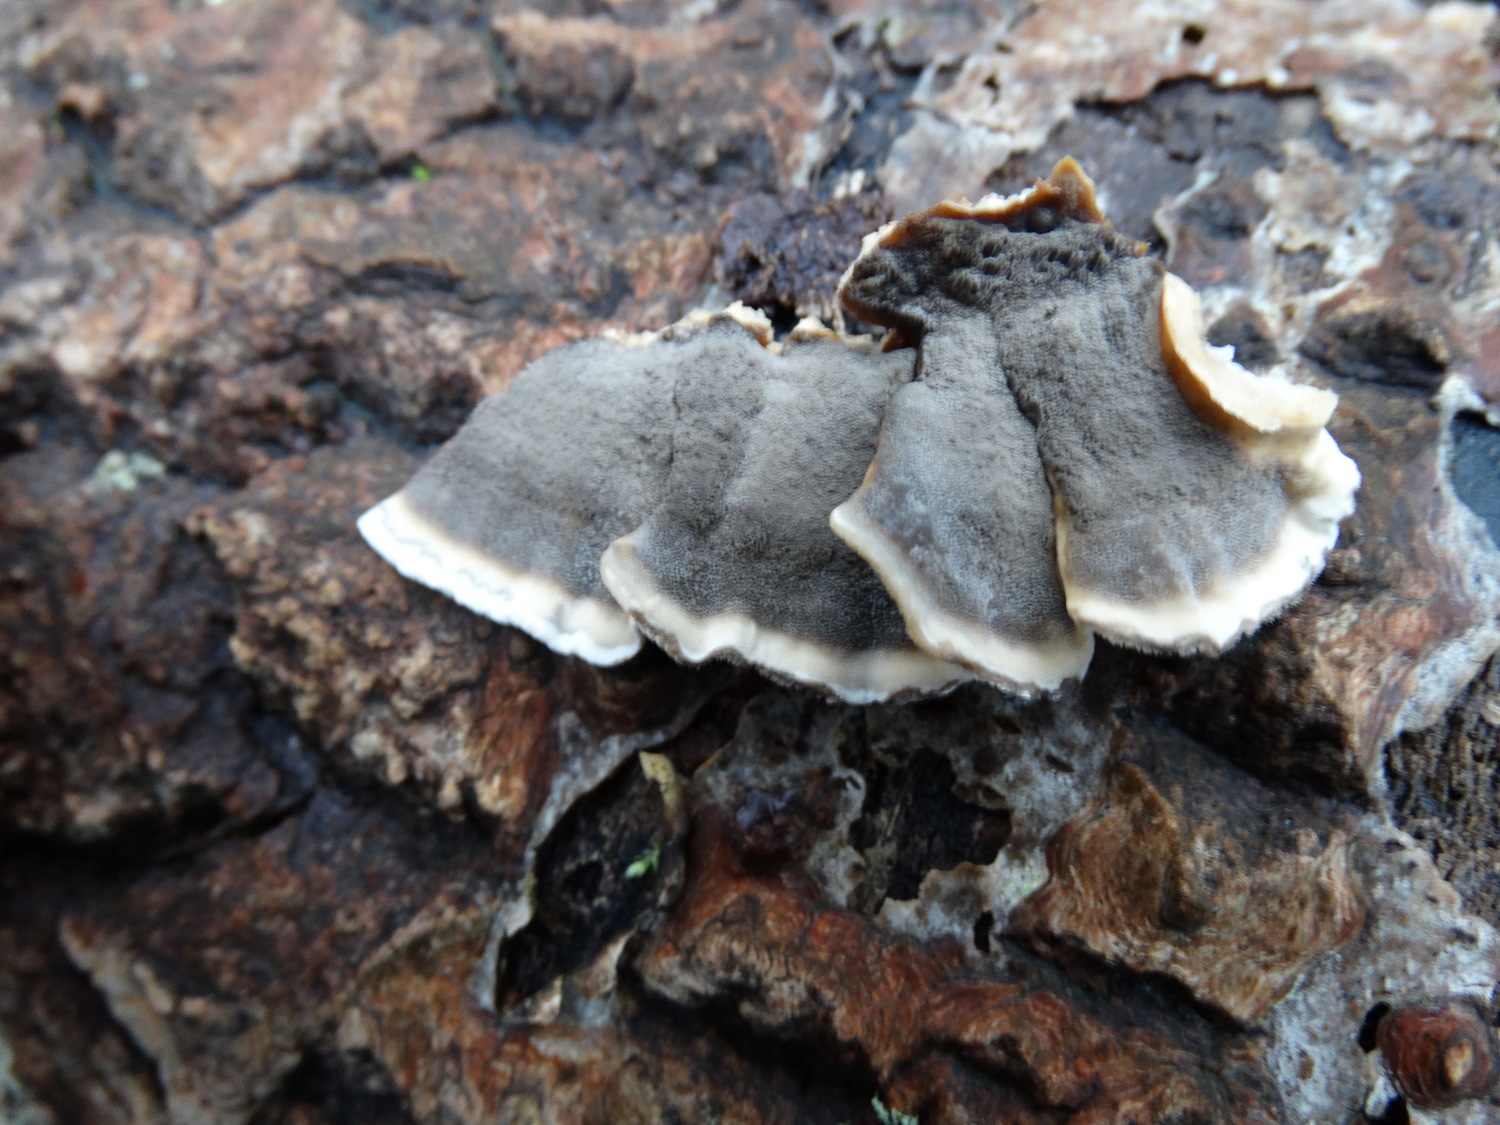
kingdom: Fungi
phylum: Basidiomycota
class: Agaricomycetes
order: Polyporales
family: Phanerochaetaceae
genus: Bjerkandera
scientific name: Bjerkandera adusta
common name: sveden sodporesvamp
